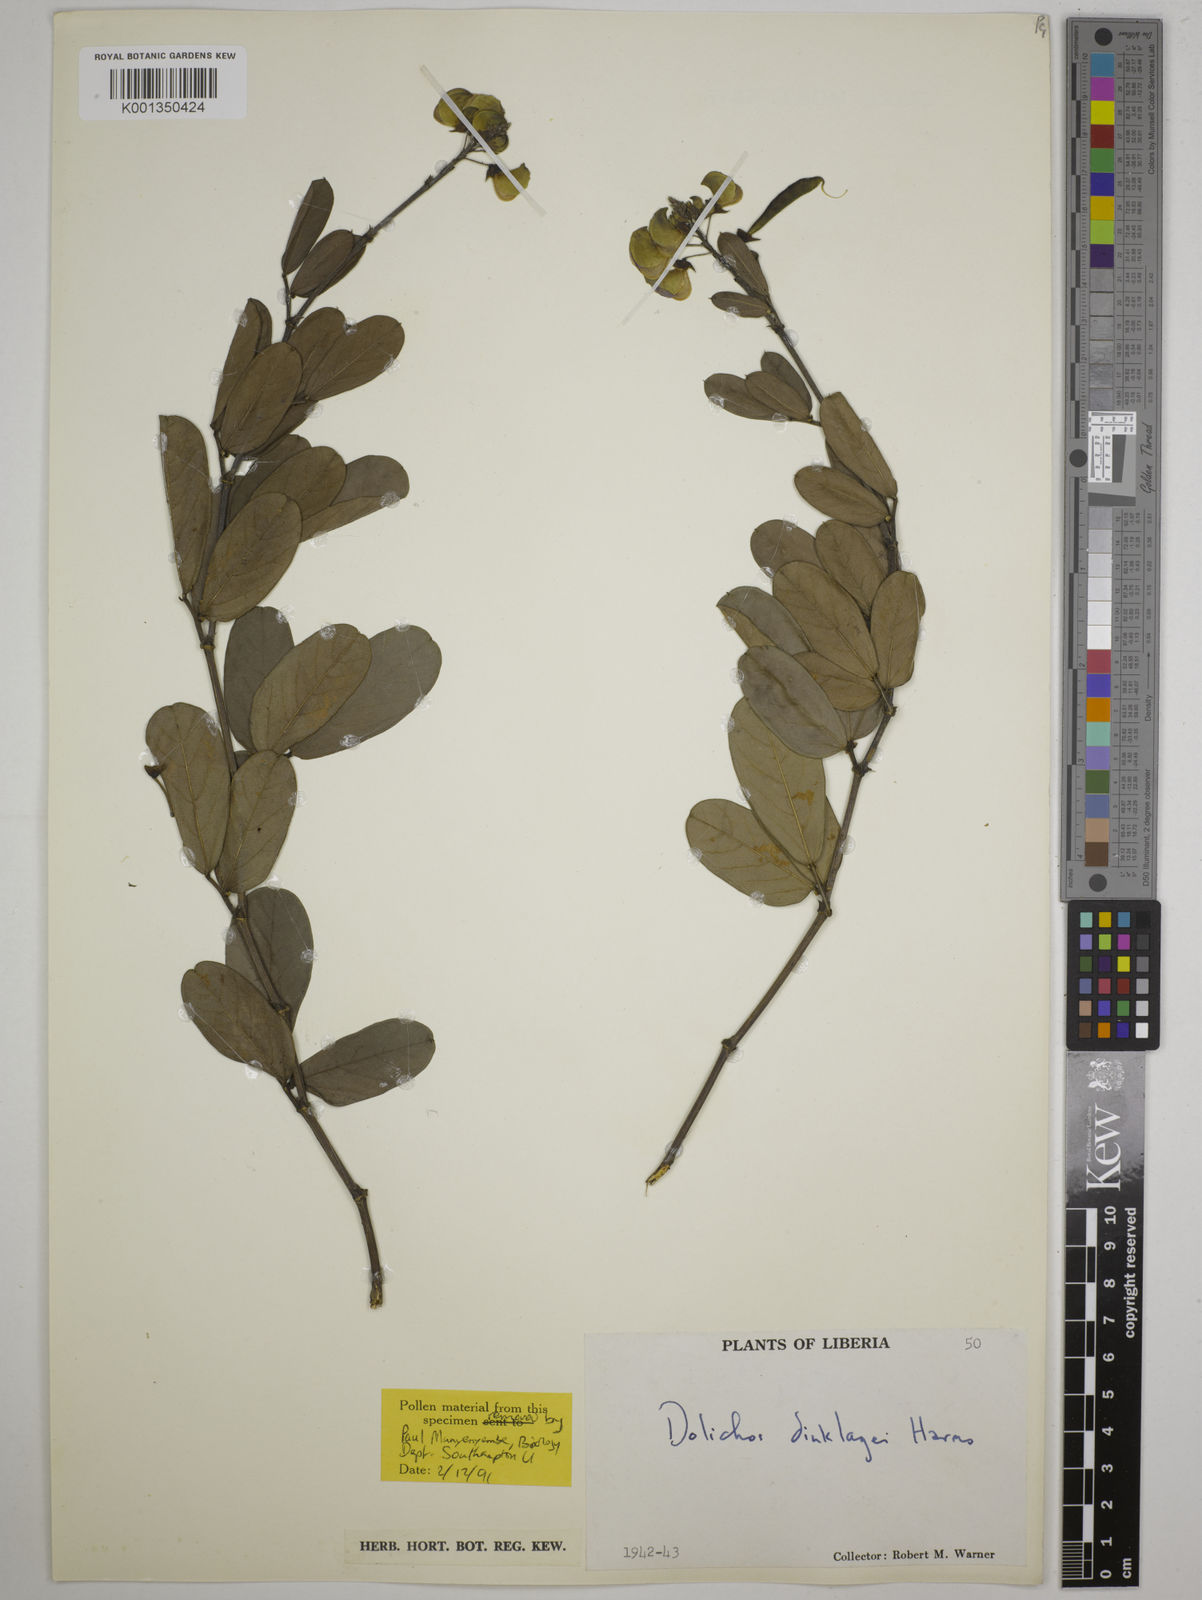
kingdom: Plantae
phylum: Tracheophyta
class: Magnoliopsida
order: Fabales
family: Fabaceae
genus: Dolichos
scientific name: Dolichos dinklagei
